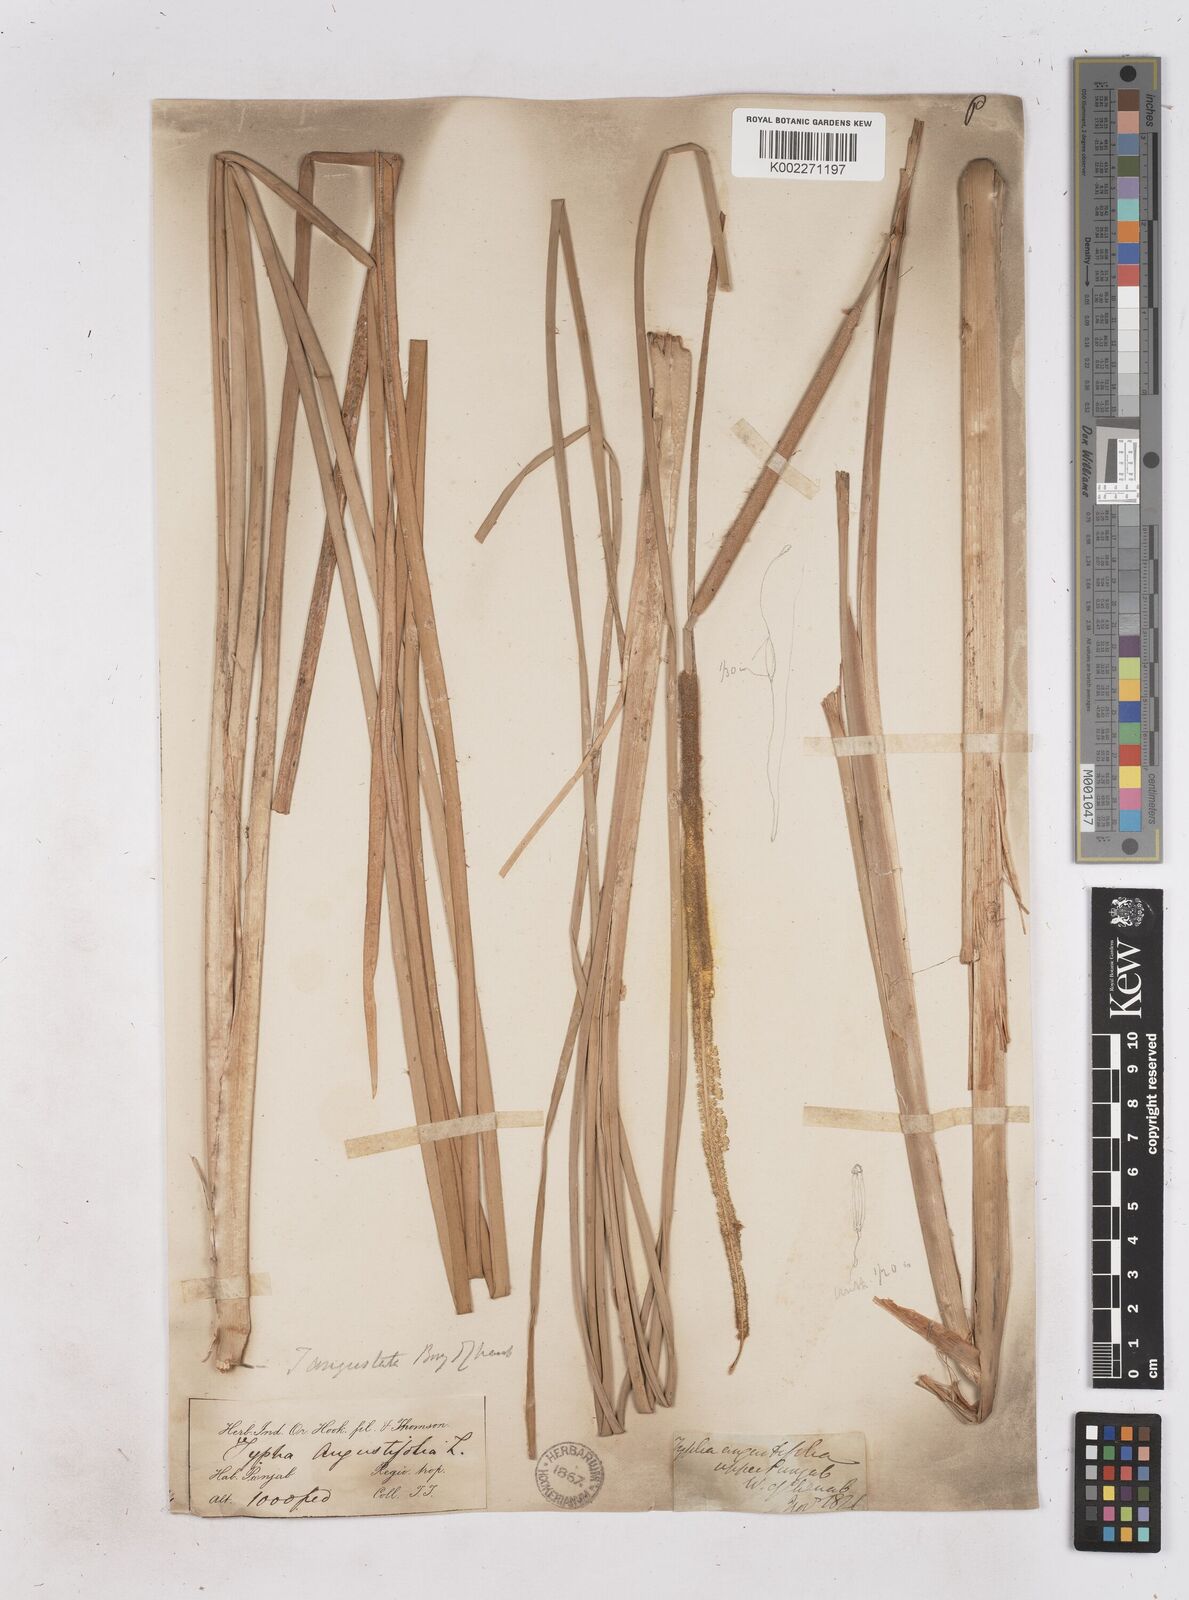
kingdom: Plantae
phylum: Tracheophyta
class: Liliopsida
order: Poales
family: Typhaceae
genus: Typha
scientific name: Typha domingensis
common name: Southern cattail
